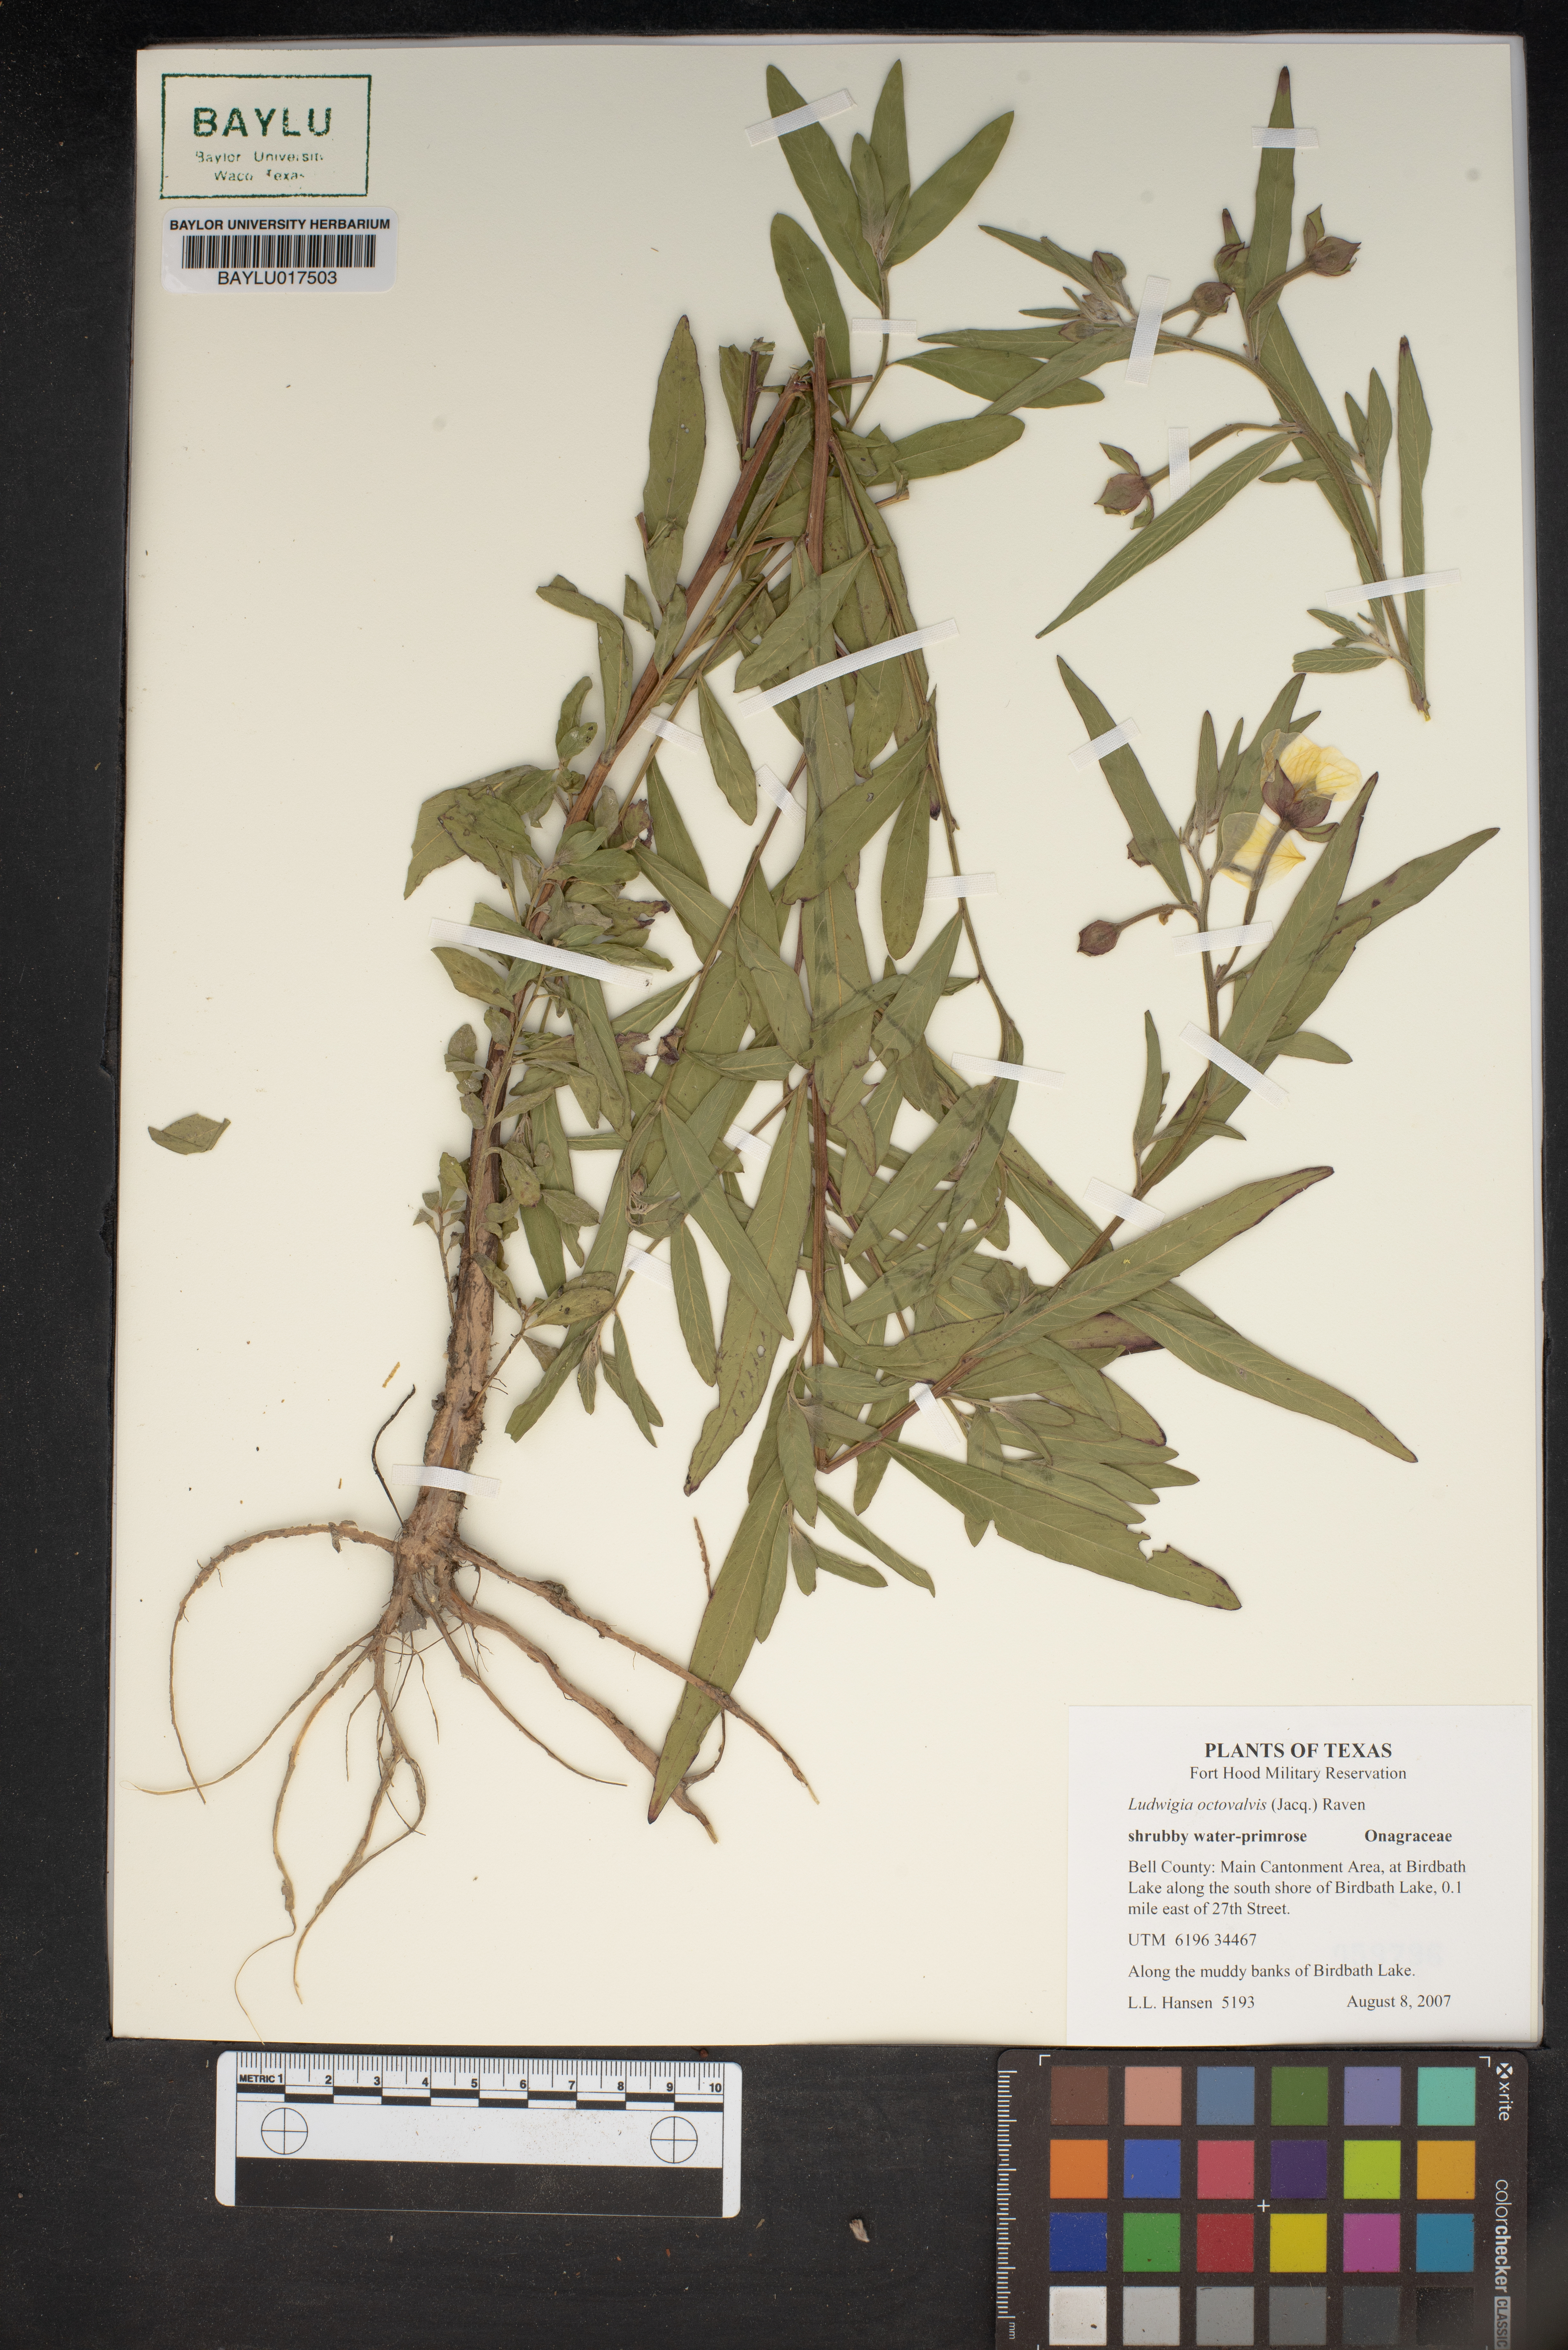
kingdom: Plantae
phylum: Tracheophyta
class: Magnoliopsida
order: Myrtales
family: Onagraceae
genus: Ludwigia
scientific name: Ludwigia octovalvis
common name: Water-primrose
